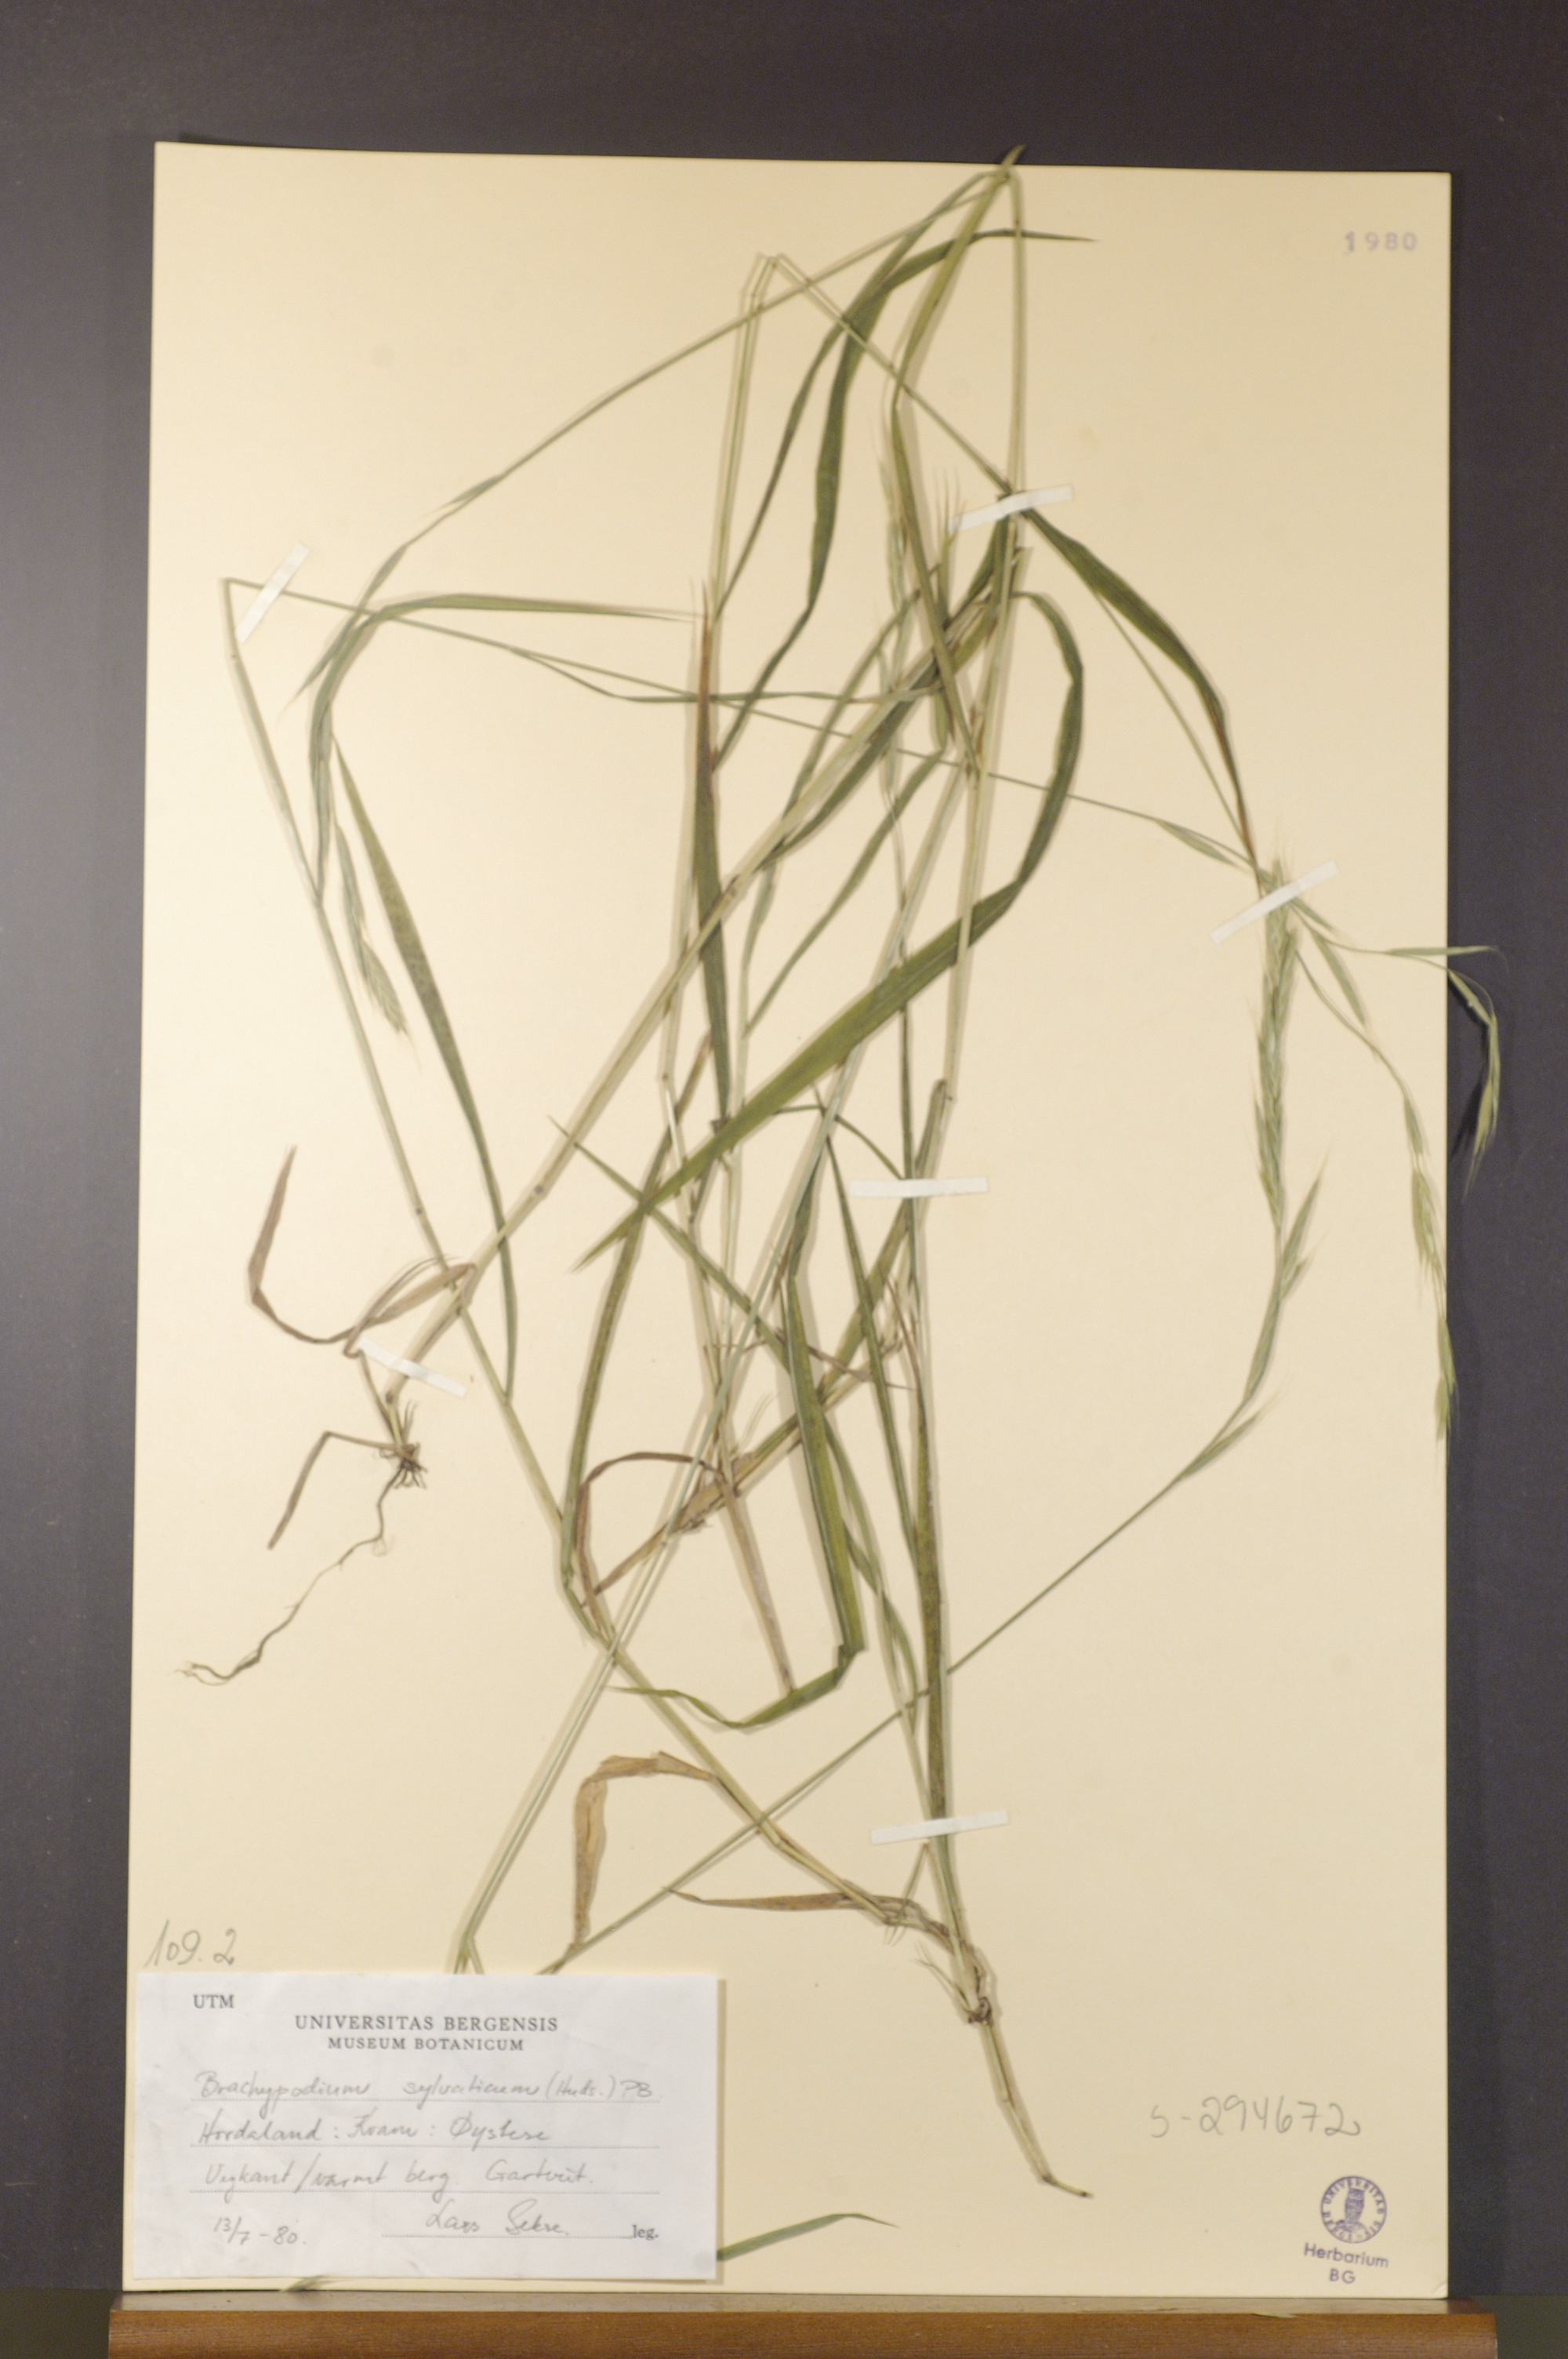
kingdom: Plantae
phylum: Tracheophyta
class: Liliopsida
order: Poales
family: Poaceae
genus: Brachypodium
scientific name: Brachypodium sylvaticum
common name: False-brome
